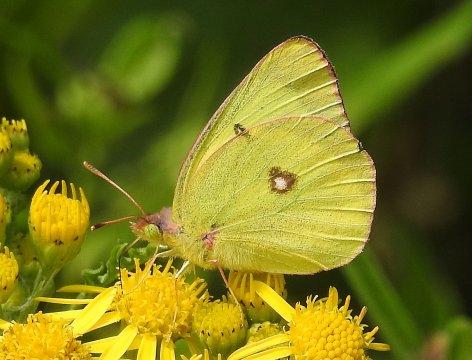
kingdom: Animalia
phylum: Arthropoda
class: Insecta
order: Lepidoptera
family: Pieridae
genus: Colias
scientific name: Colias philodice
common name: Clouded Sulphur
